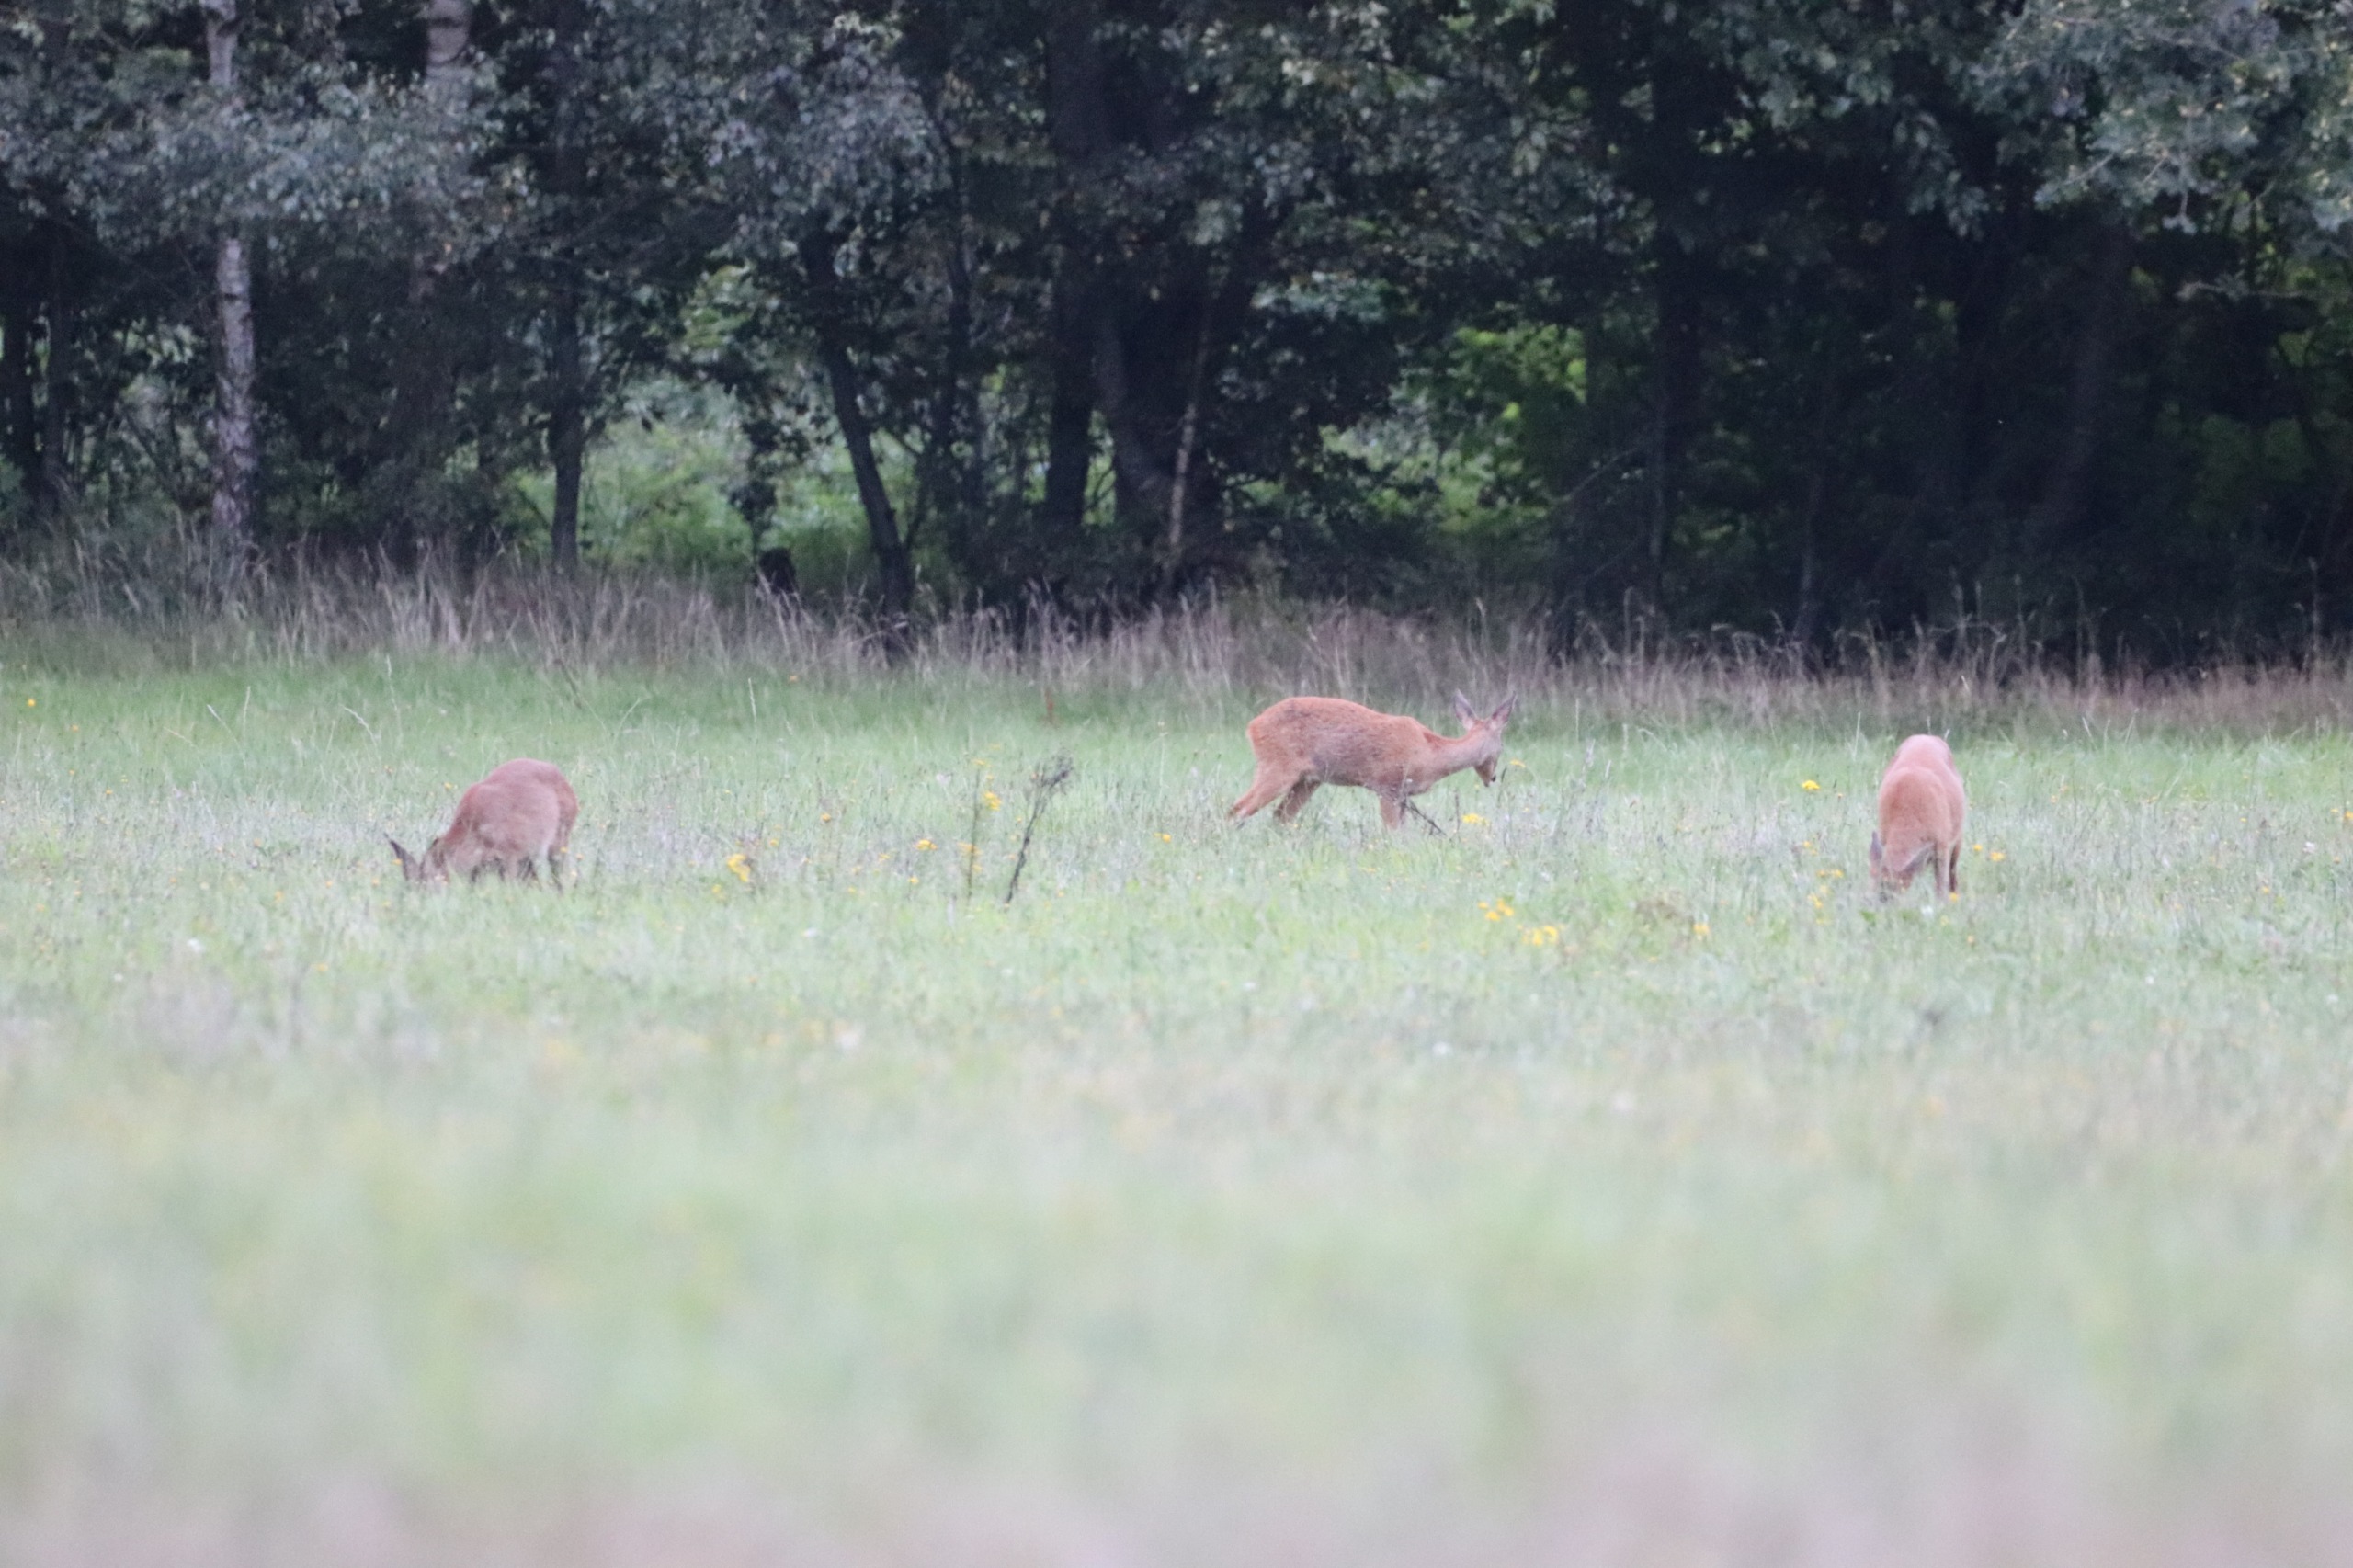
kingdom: Animalia
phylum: Chordata
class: Mammalia
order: Artiodactyla
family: Cervidae
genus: Capreolus
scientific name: Capreolus capreolus
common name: Rådyr
